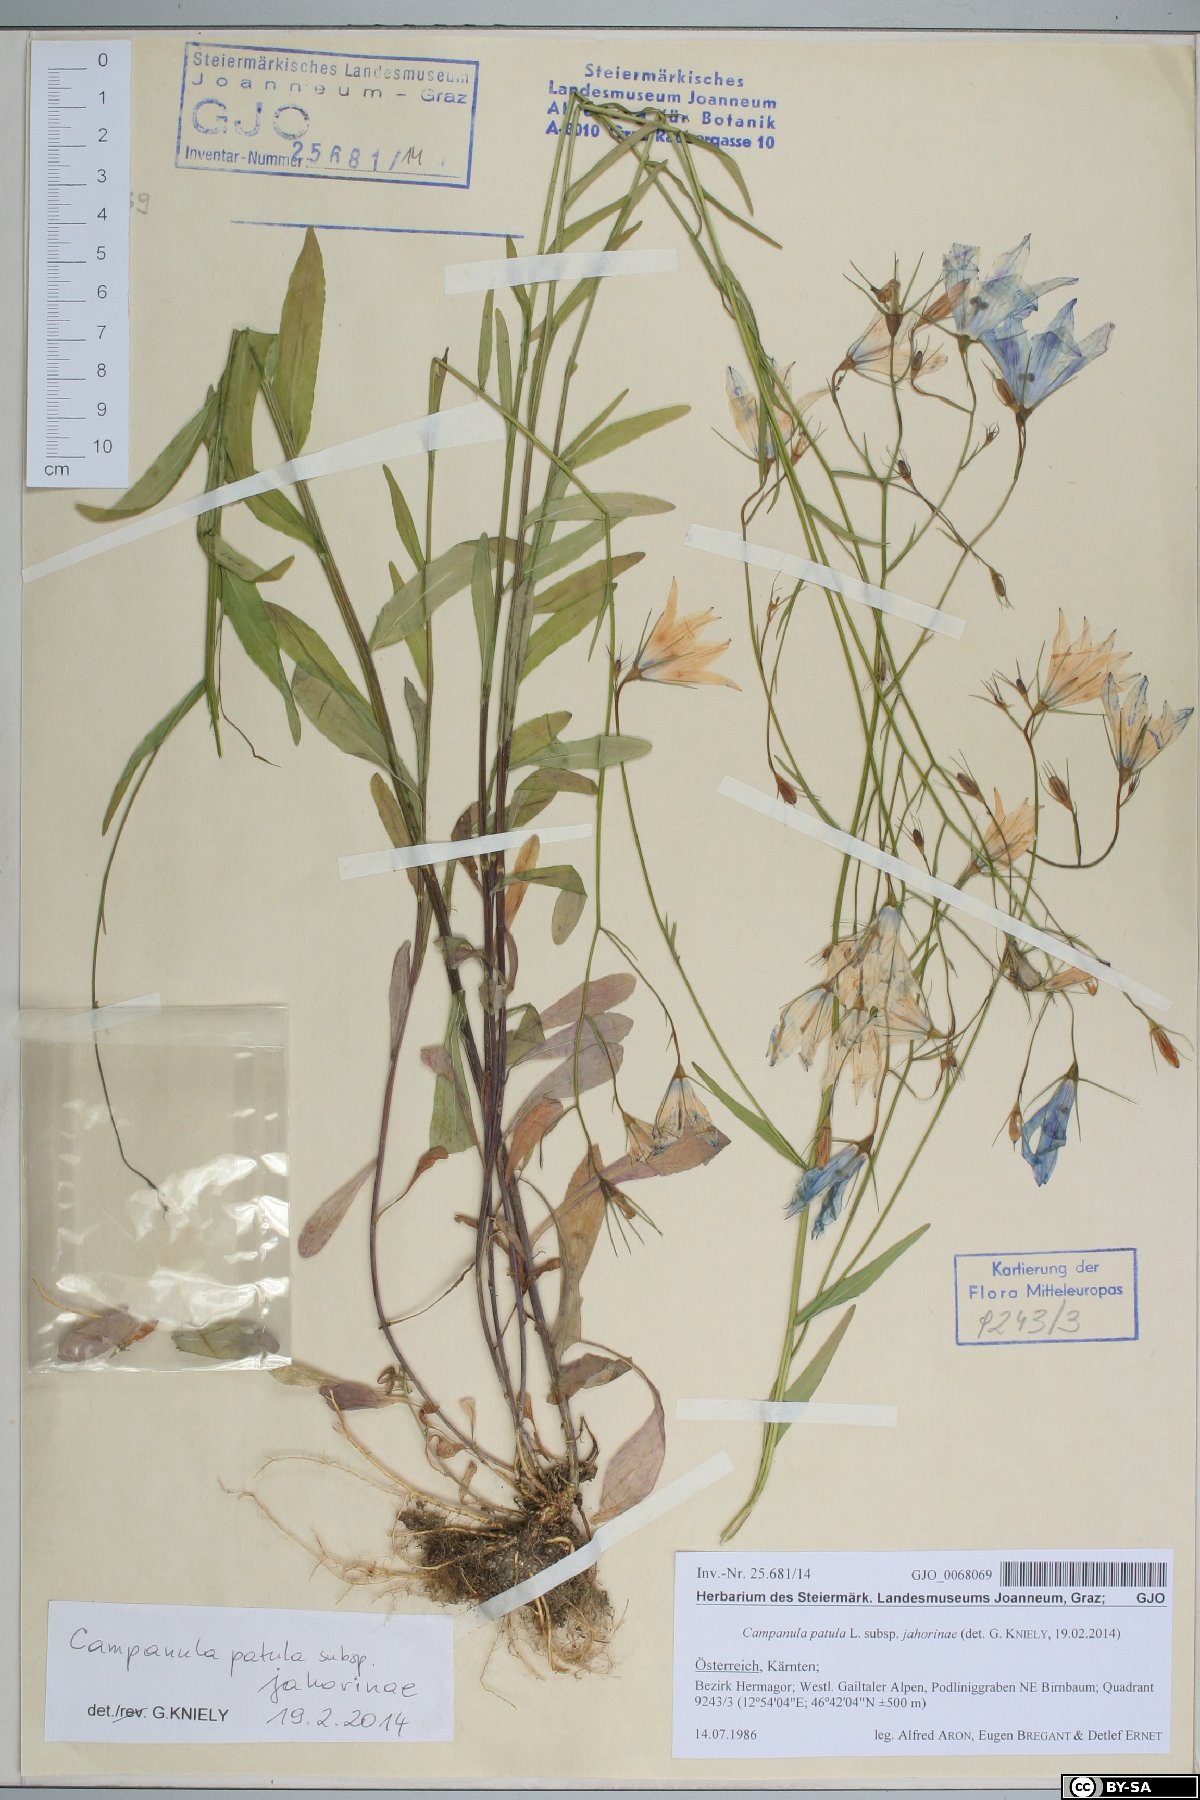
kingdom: Plantae
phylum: Tracheophyta
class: Magnoliopsida
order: Asterales
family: Campanulaceae
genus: Campanula
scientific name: Campanula patula
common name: Spreading bellflower
